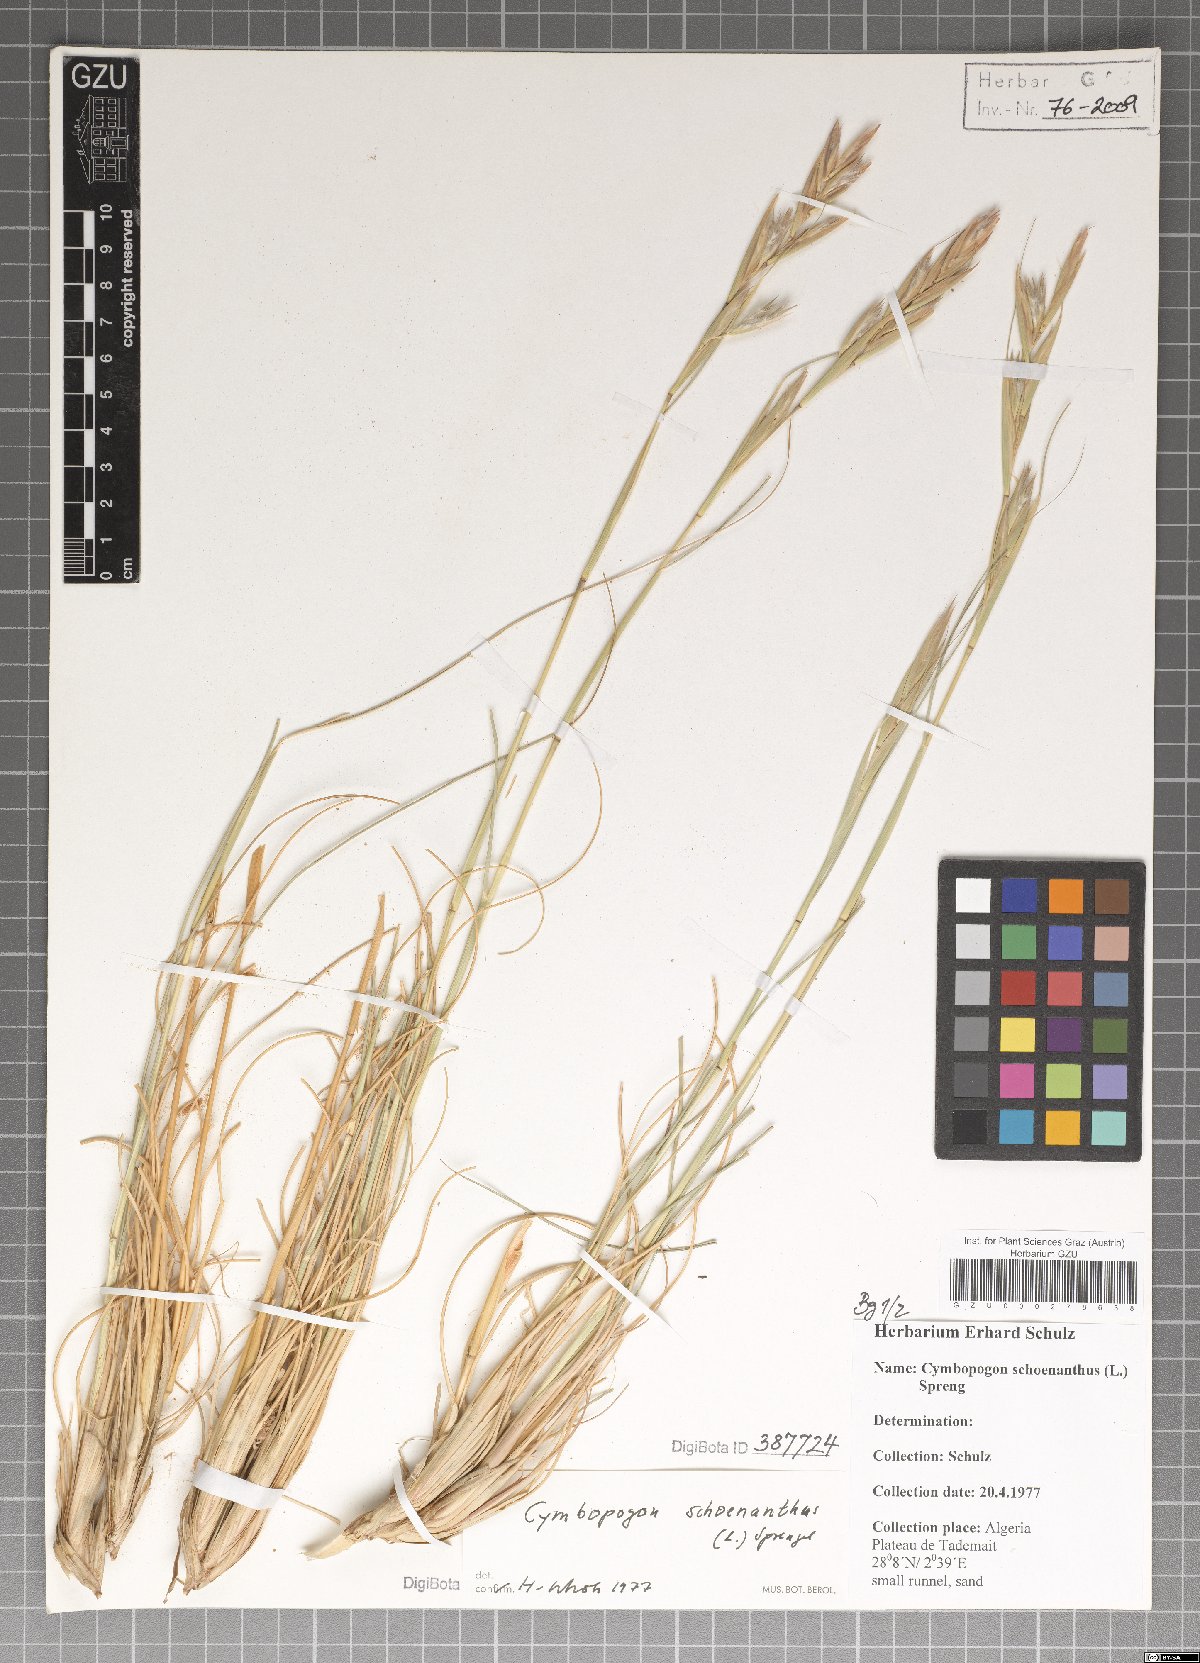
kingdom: Plantae
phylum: Tracheophyta
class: Liliopsida
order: Poales
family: Poaceae
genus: Cymbopogon
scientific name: Cymbopogon schoenanthus
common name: Geranium grass
